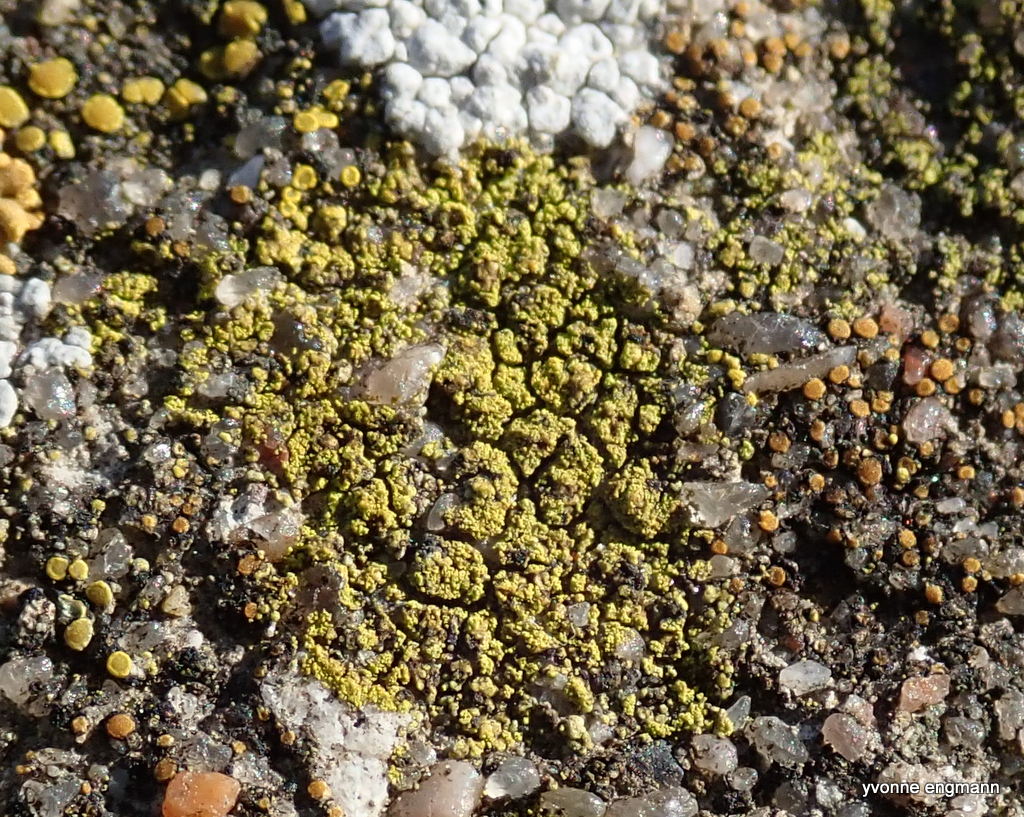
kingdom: Fungi
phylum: Ascomycota
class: Lecanoromycetes
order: Teloschistales
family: Teloschistaceae
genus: Flavoplaca
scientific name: Flavoplaca
